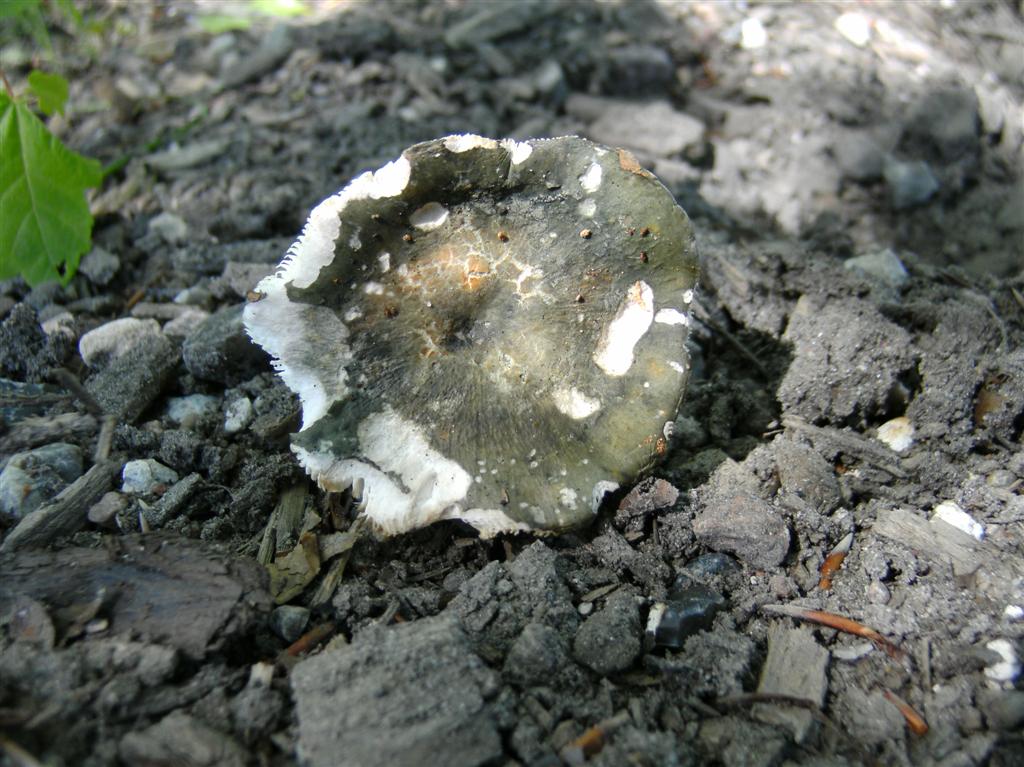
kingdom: Fungi
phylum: Basidiomycota
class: Agaricomycetes
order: Russulales
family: Russulaceae
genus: Russula
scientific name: Russula parazurea
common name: blågrå skørhat
